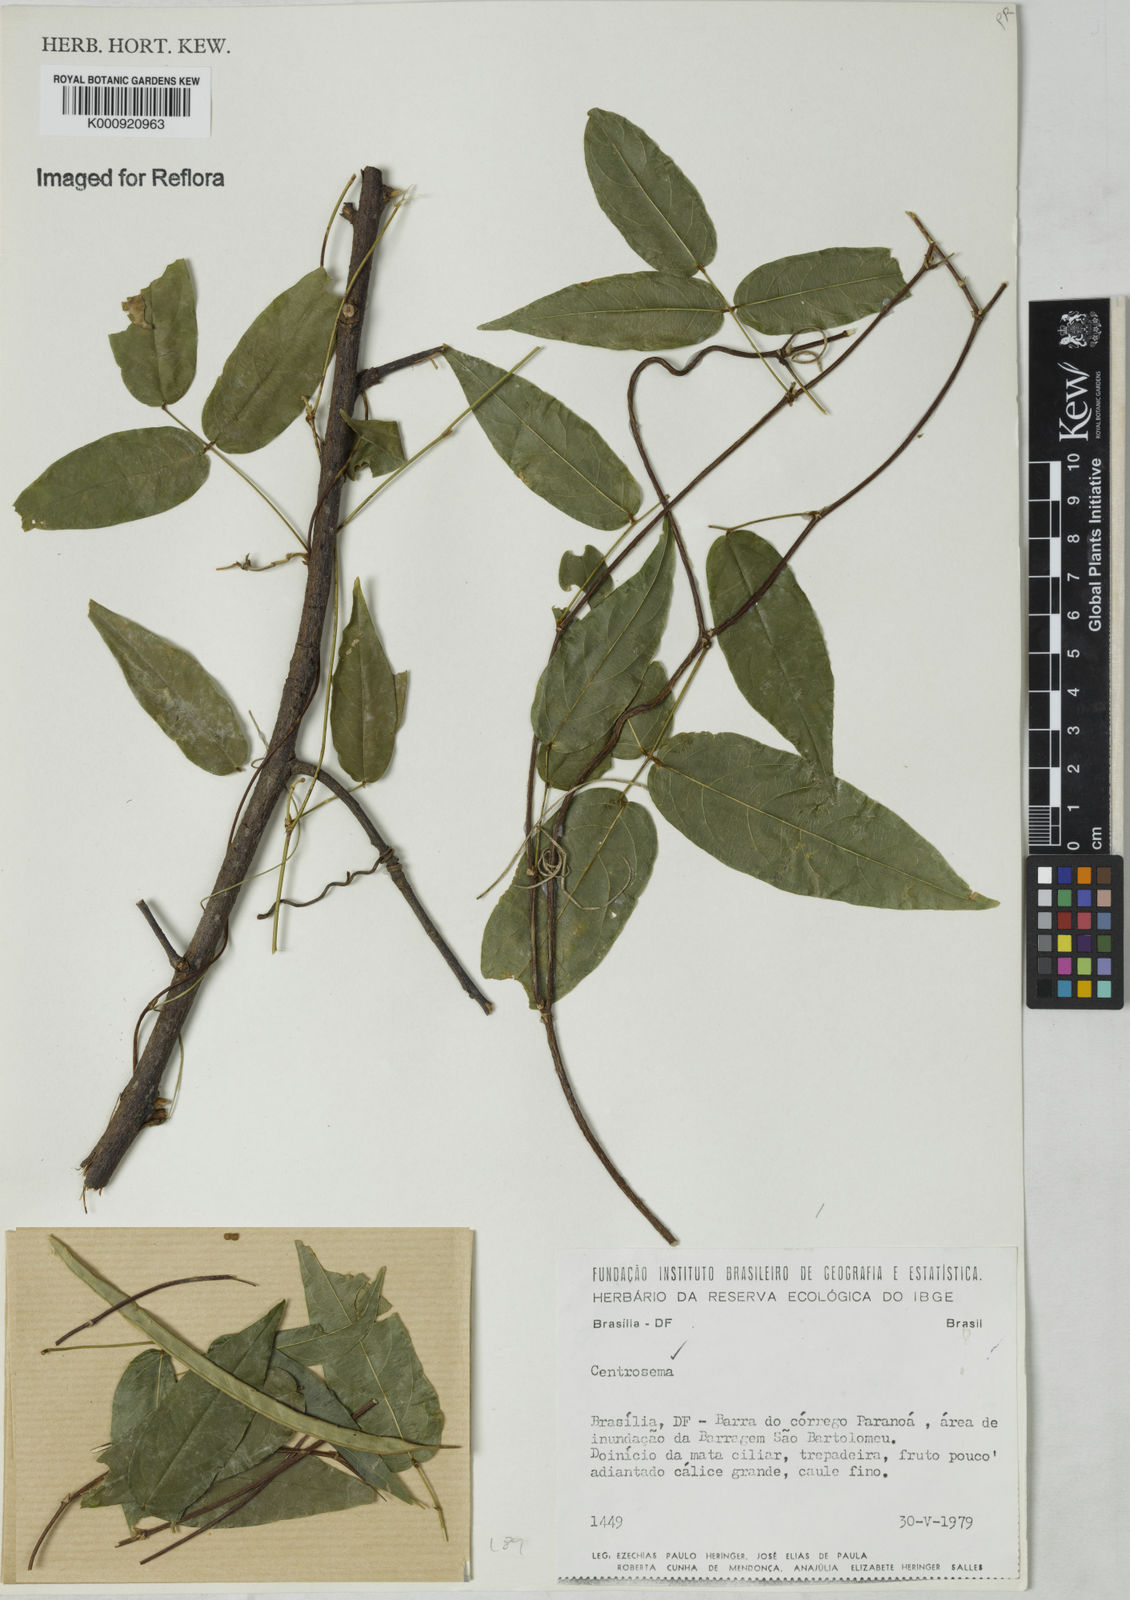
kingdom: Plantae
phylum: Tracheophyta
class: Magnoliopsida
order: Fabales
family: Fabaceae
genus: Centrosema
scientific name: Centrosema
